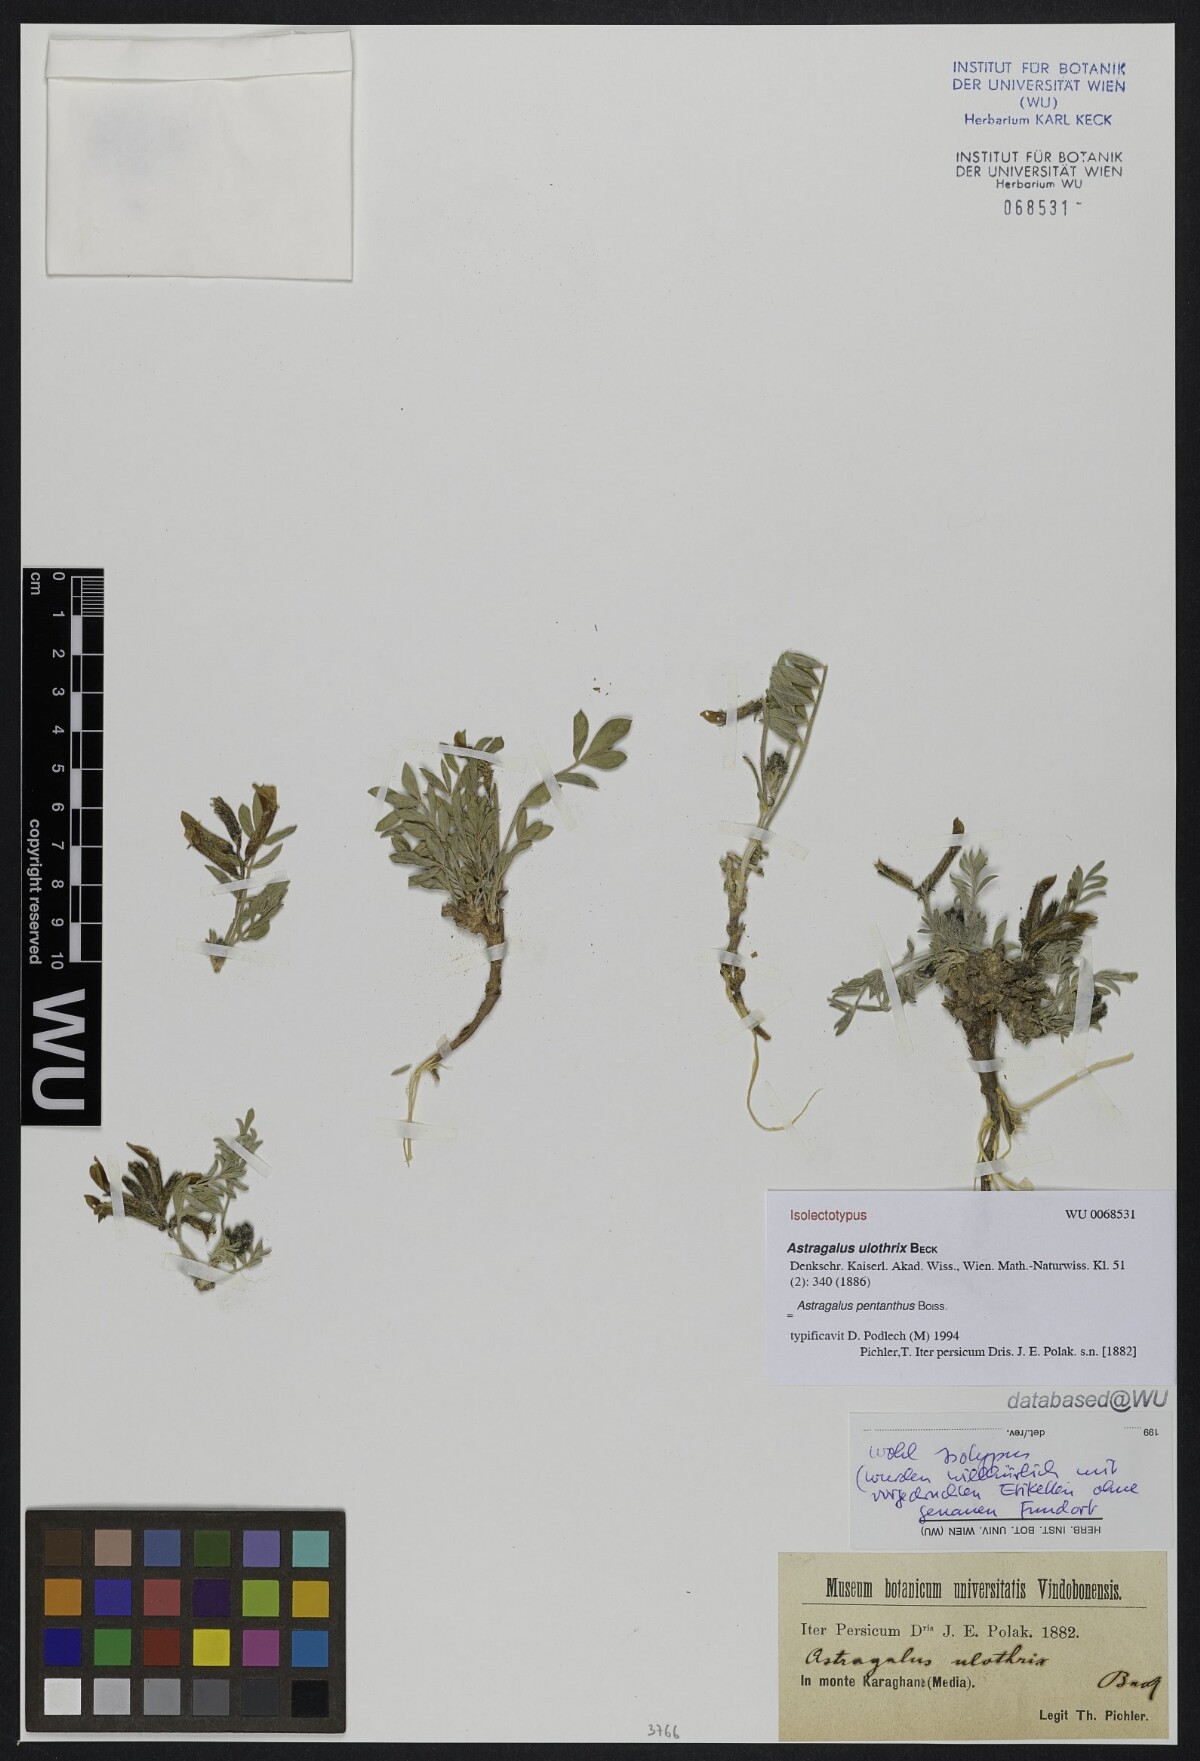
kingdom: Plantae
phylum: Tracheophyta
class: Magnoliopsida
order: Fabales
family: Fabaceae
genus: Astragalus
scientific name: Astragalus pentanthus
